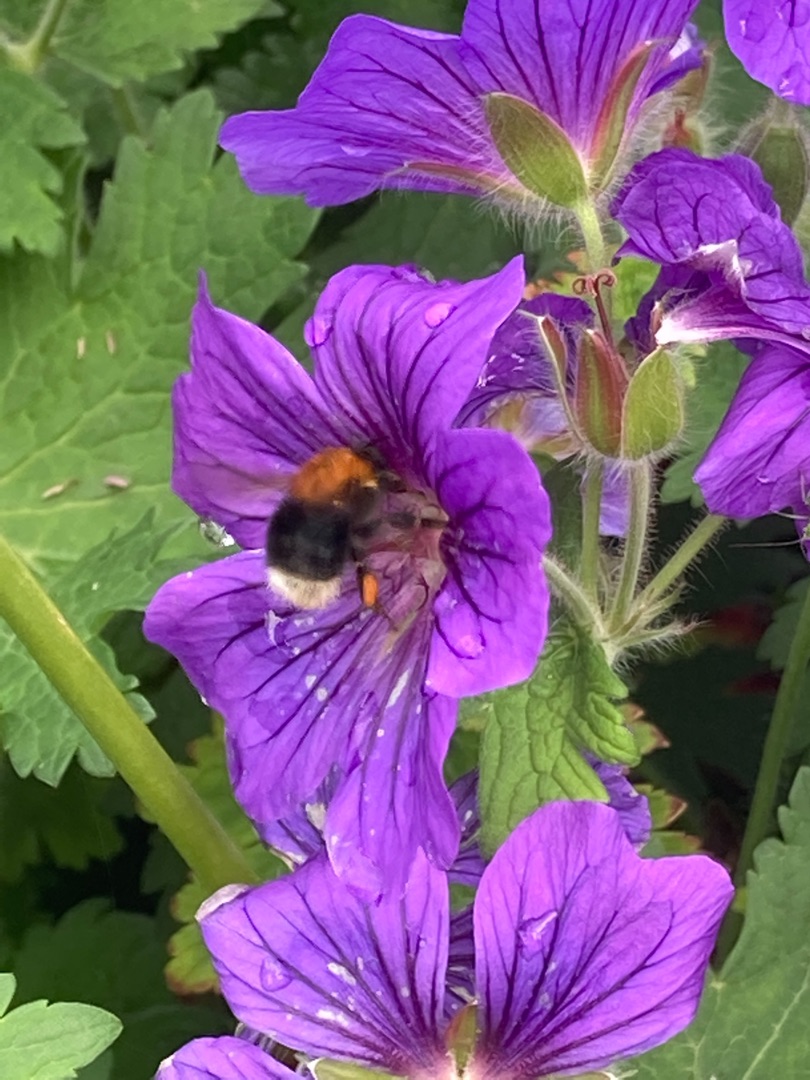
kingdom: Animalia
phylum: Arthropoda
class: Insecta
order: Hymenoptera
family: Apidae
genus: Bombus
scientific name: Bombus hypnorum
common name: Hushumle
